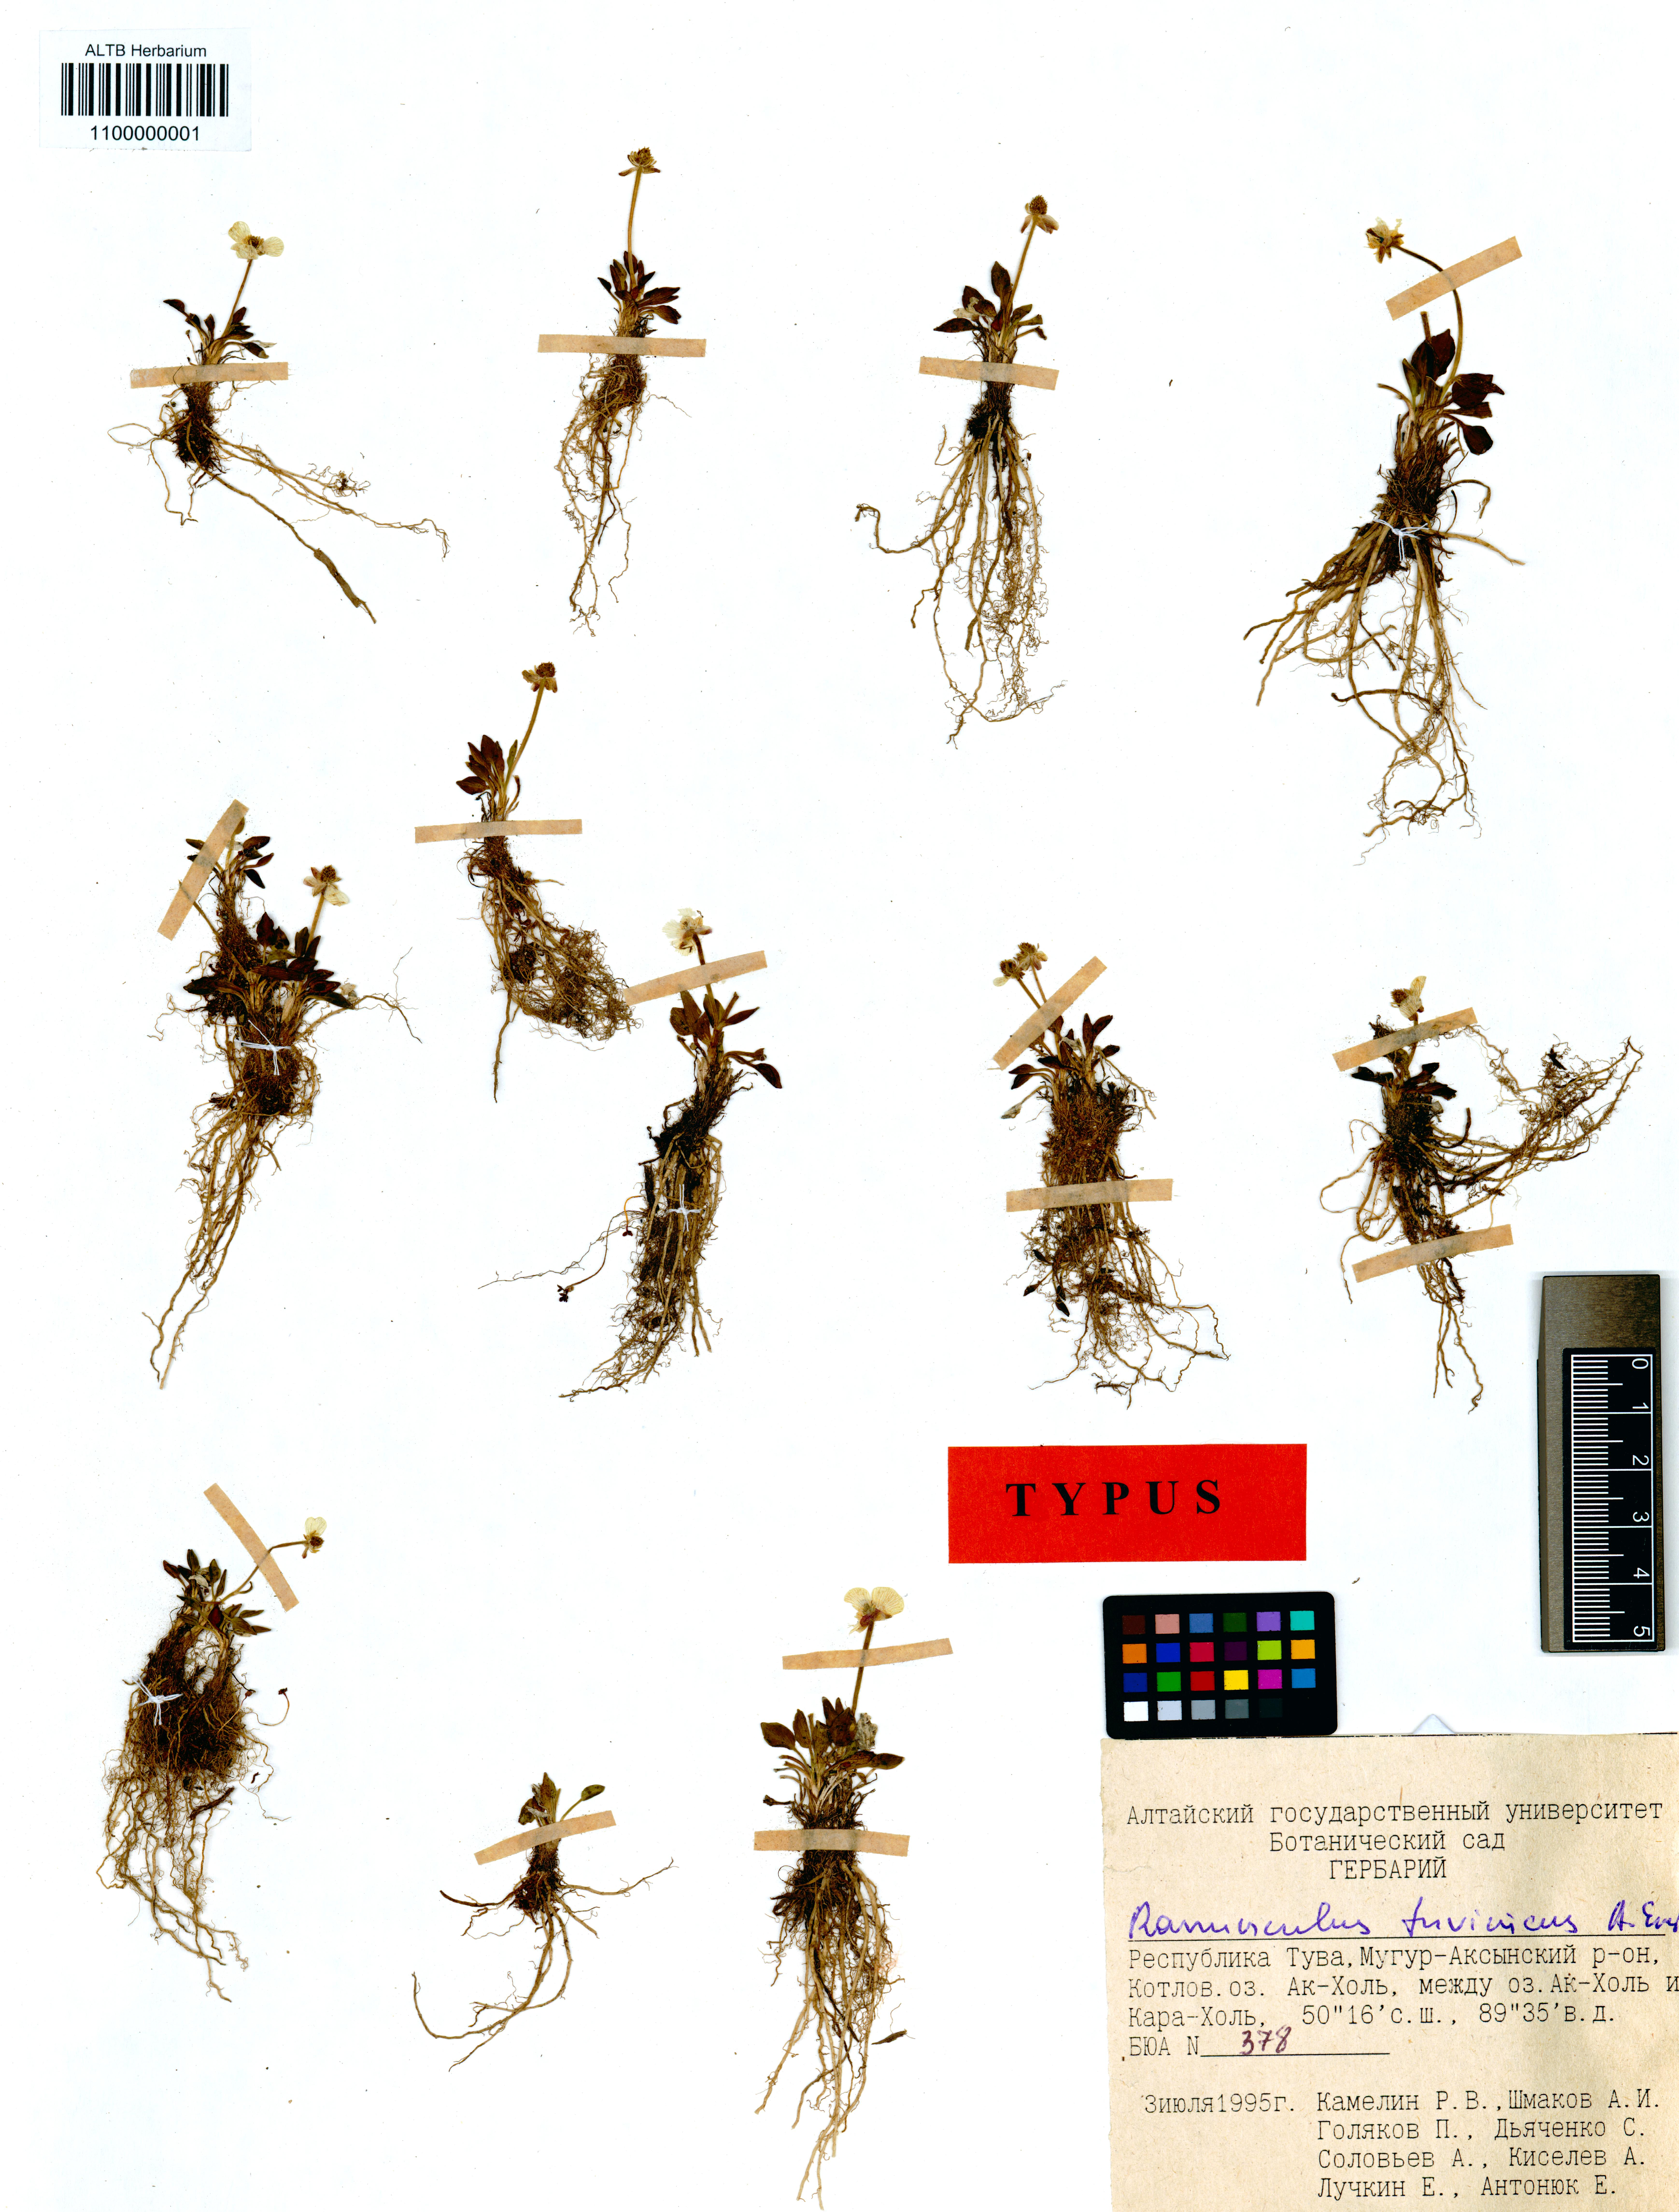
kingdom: Plantae
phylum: Tracheophyta
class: Magnoliopsida
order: Ranunculales
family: Ranunculaceae
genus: Ranunculus
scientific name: Ranunculus tuvinicus
